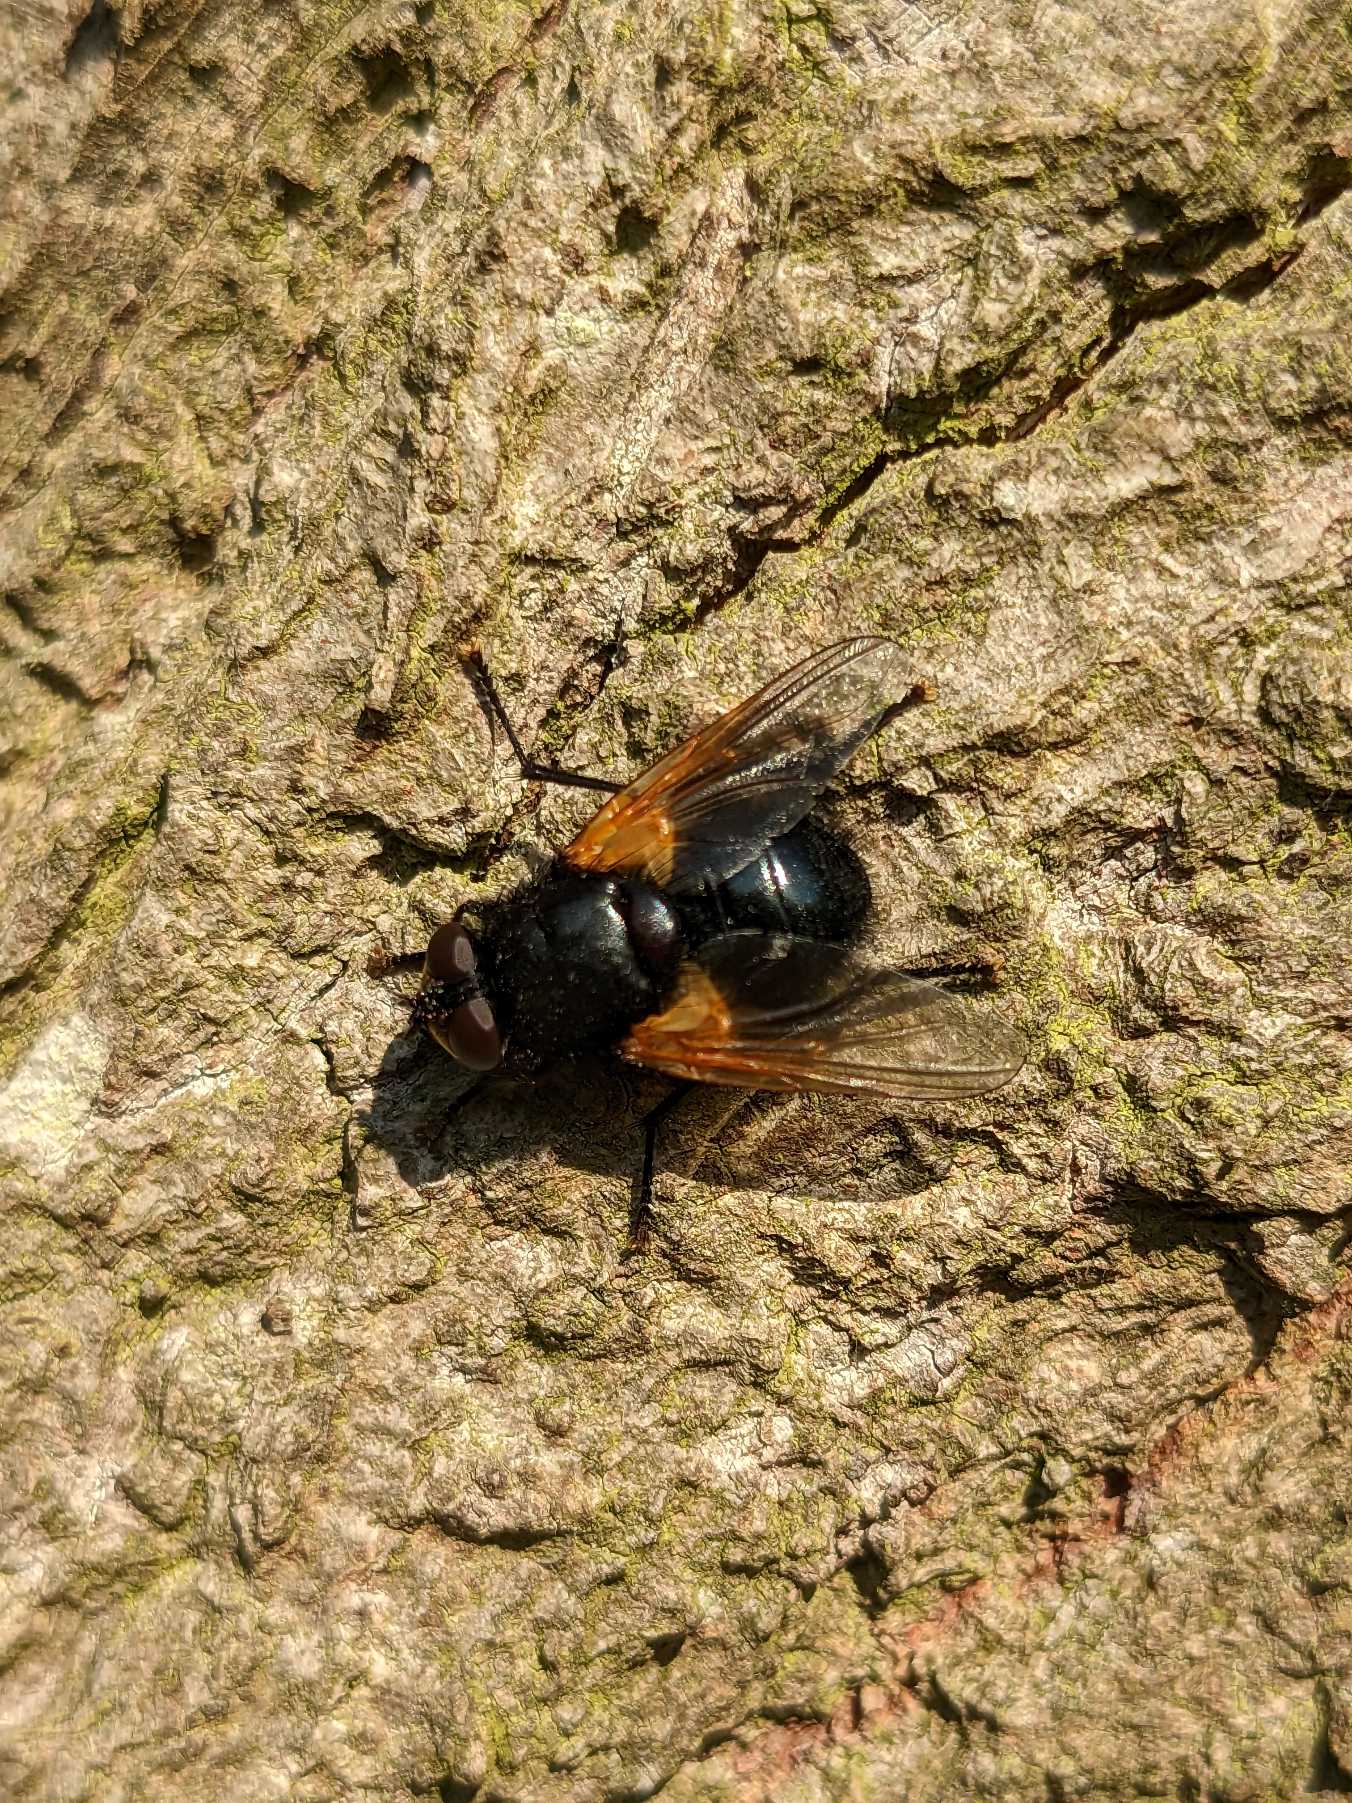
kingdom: Animalia
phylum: Arthropoda
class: Insecta
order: Diptera
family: Muscidae
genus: Mesembrina
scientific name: Mesembrina meridiana
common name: Gulvinget flue
